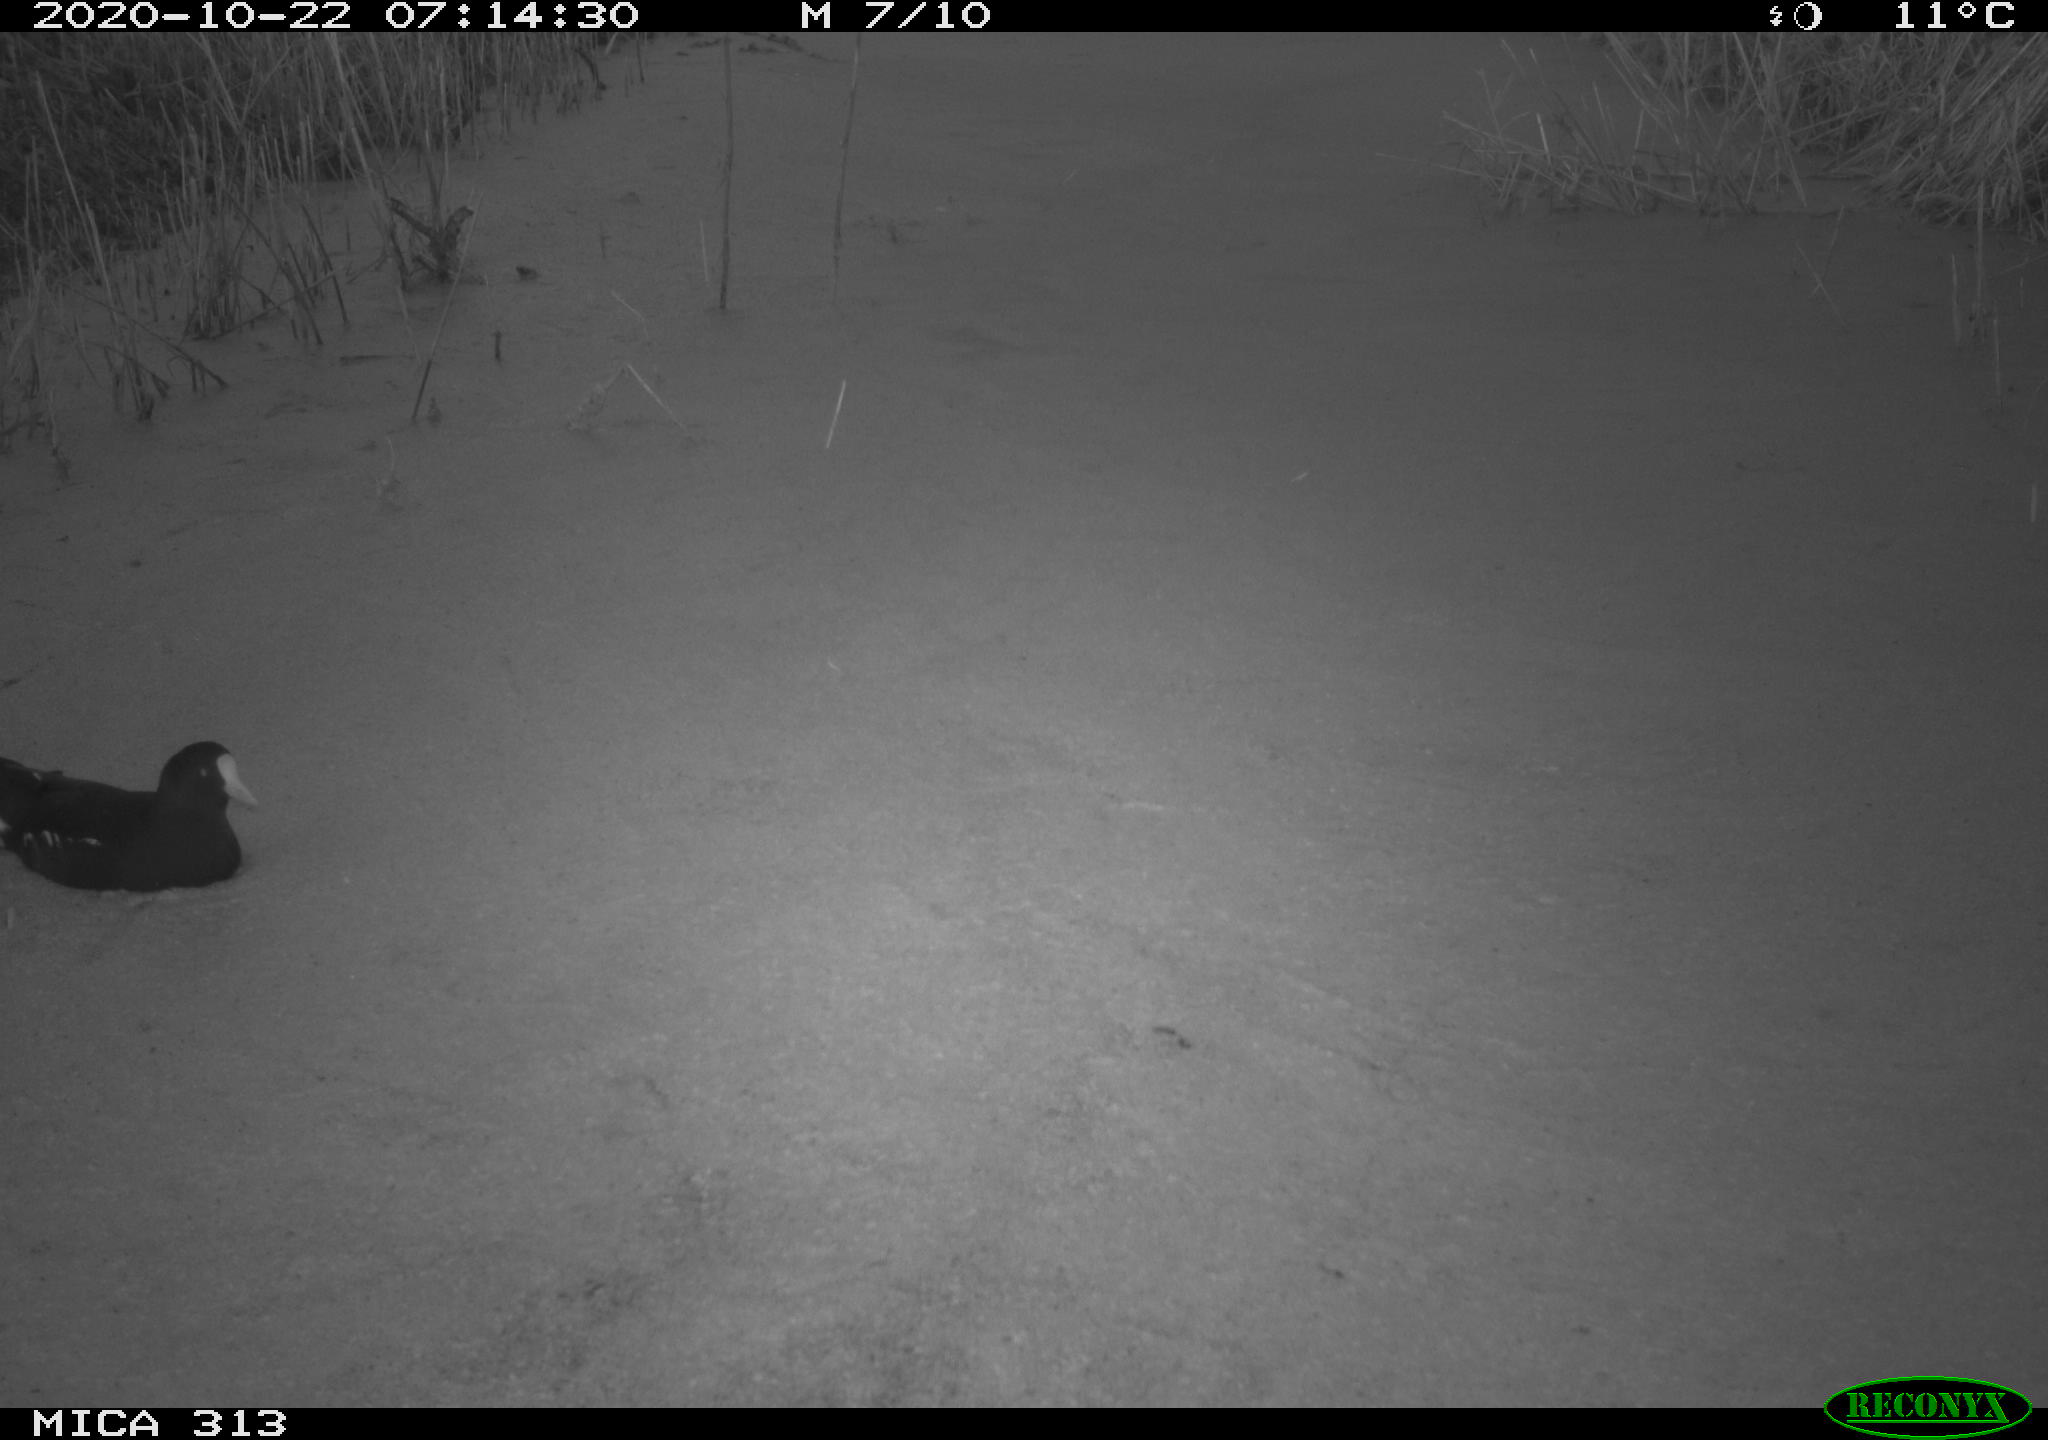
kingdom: Animalia
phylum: Chordata
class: Aves
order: Gruiformes
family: Rallidae
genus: Gallinula
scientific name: Gallinula chloropus
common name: Common moorhen
